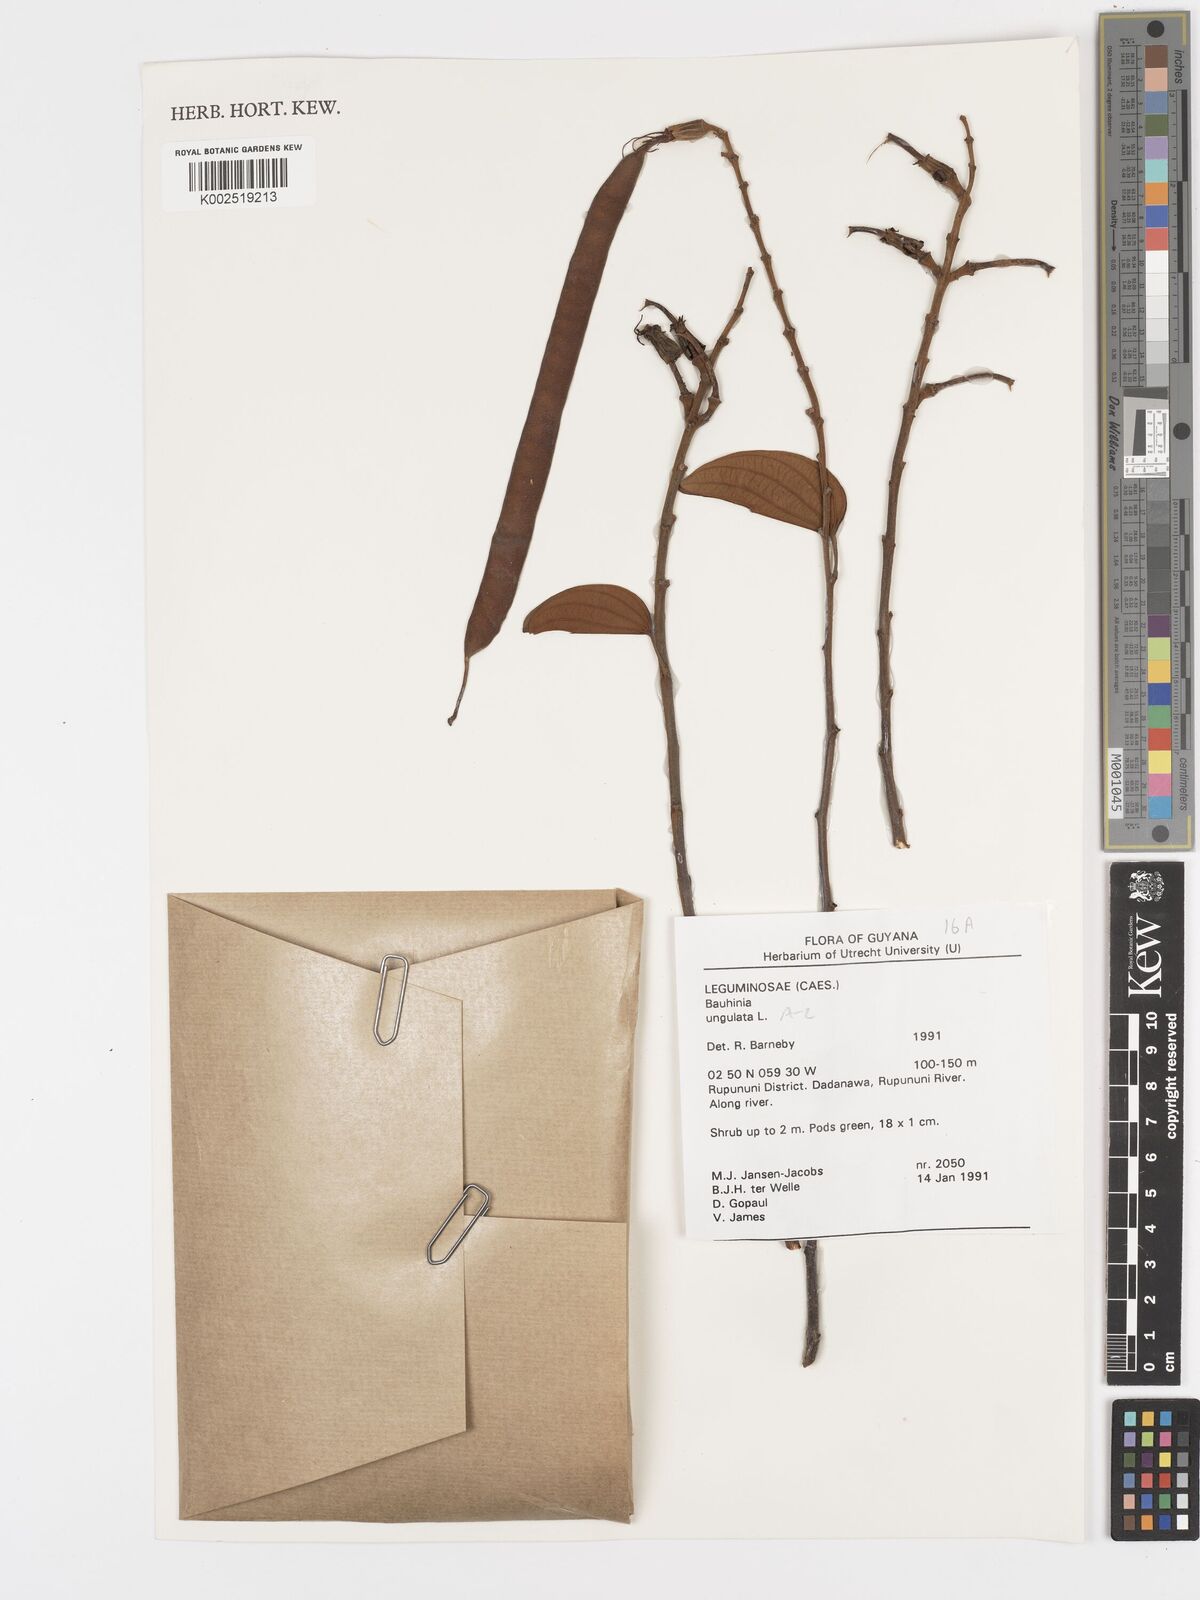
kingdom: Plantae
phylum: Tracheophyta
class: Magnoliopsida
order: Fabales
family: Fabaceae
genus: Bauhinia
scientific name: Bauhinia ungulata
